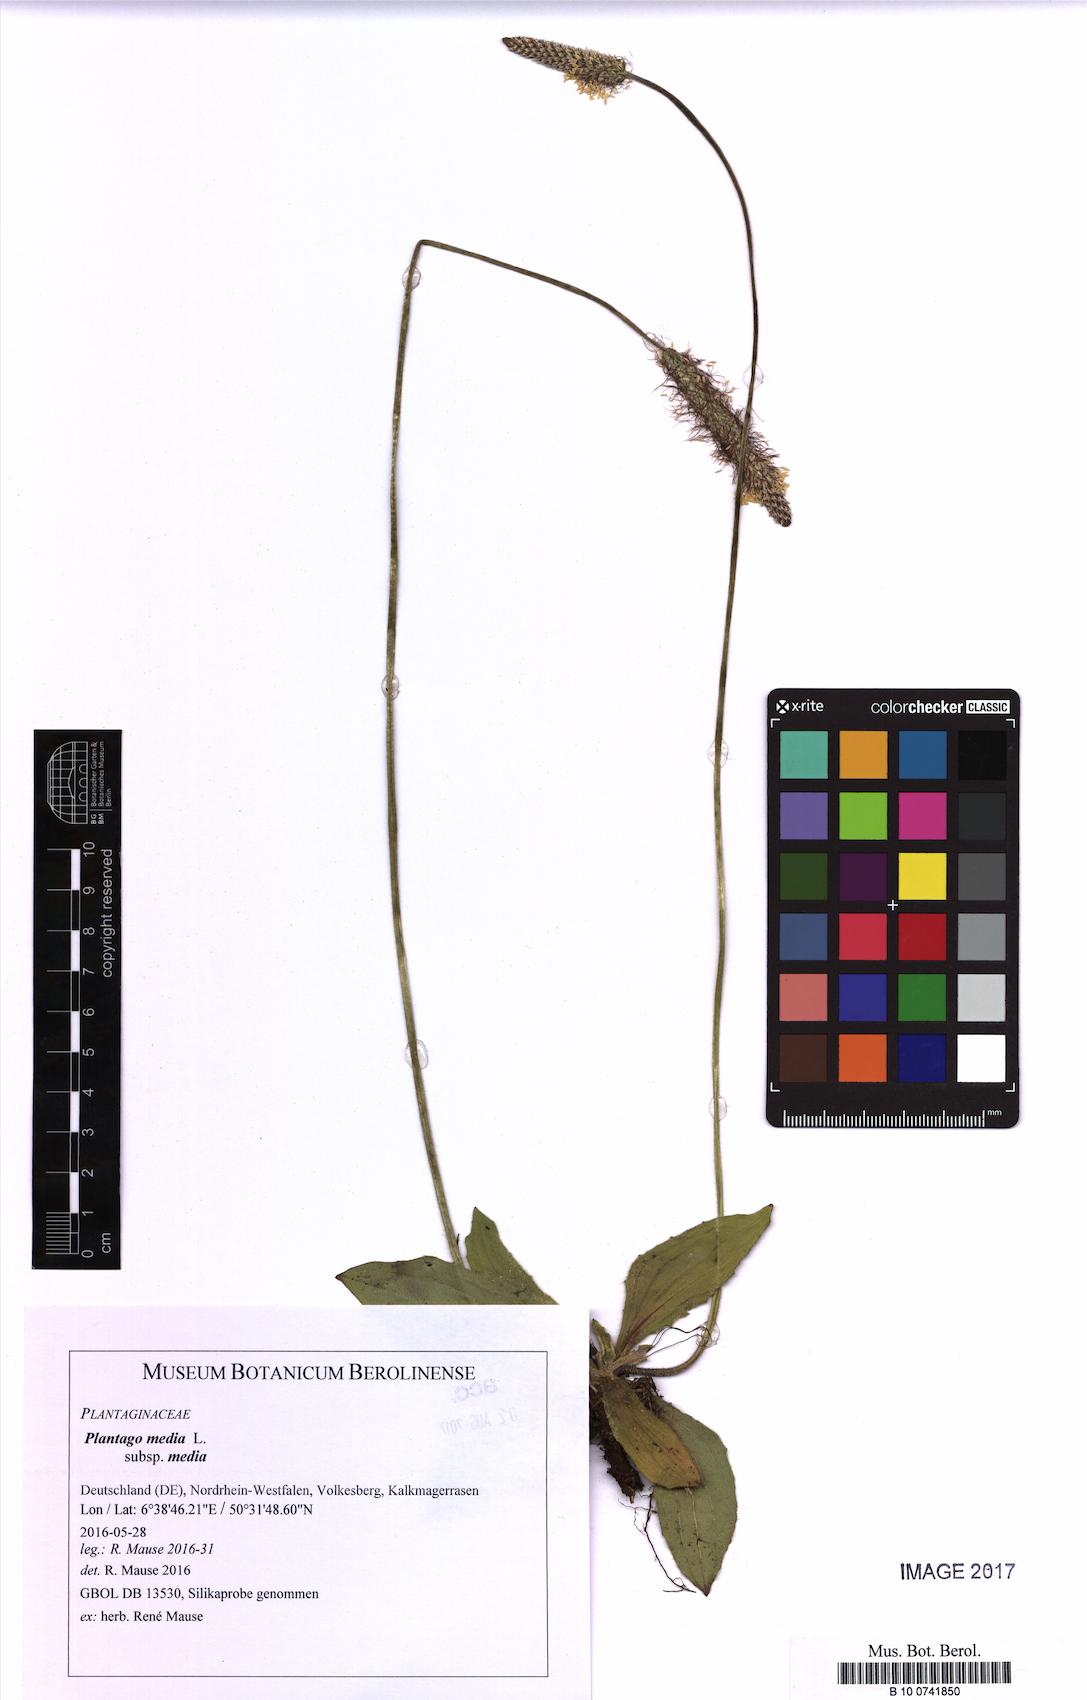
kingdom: Plantae
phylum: Tracheophyta
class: Magnoliopsida
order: Lamiales
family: Plantaginaceae
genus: Plantago
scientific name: Plantago media
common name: Hoary plantain
